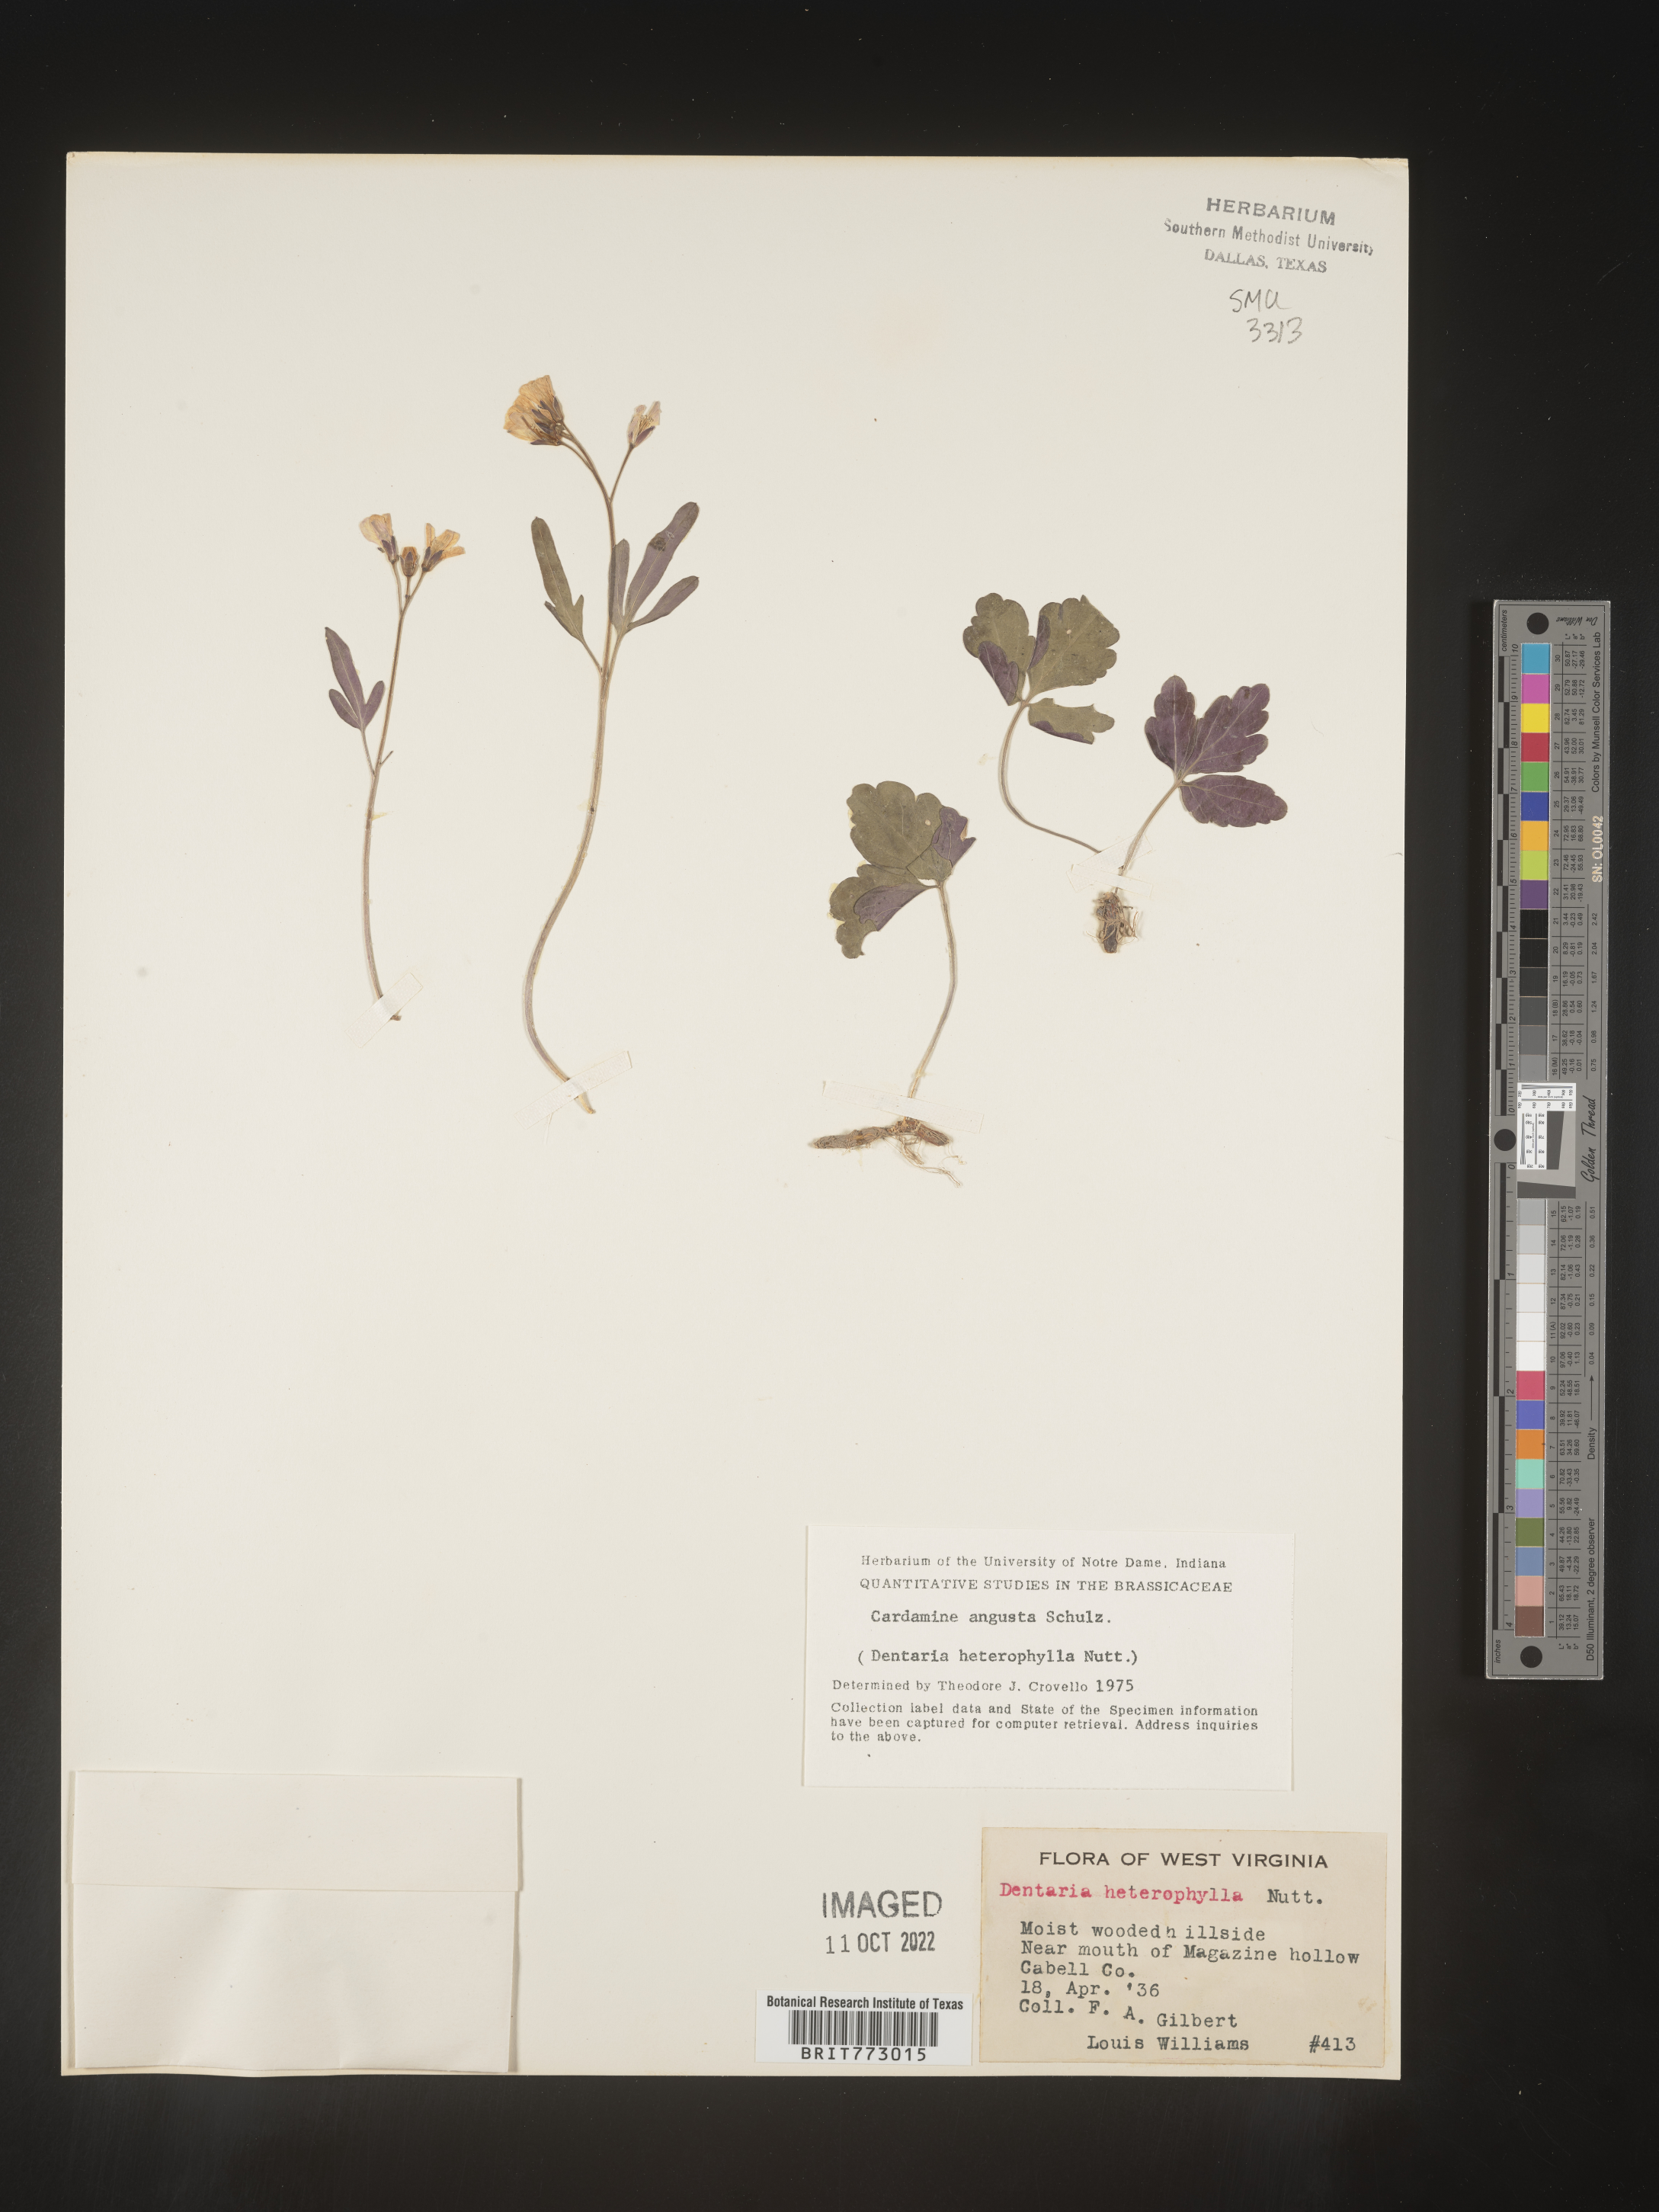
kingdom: Plantae
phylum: Tracheophyta
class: Magnoliopsida
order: Brassicales
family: Brassicaceae
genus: Cardamine
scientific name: Cardamine angustata
